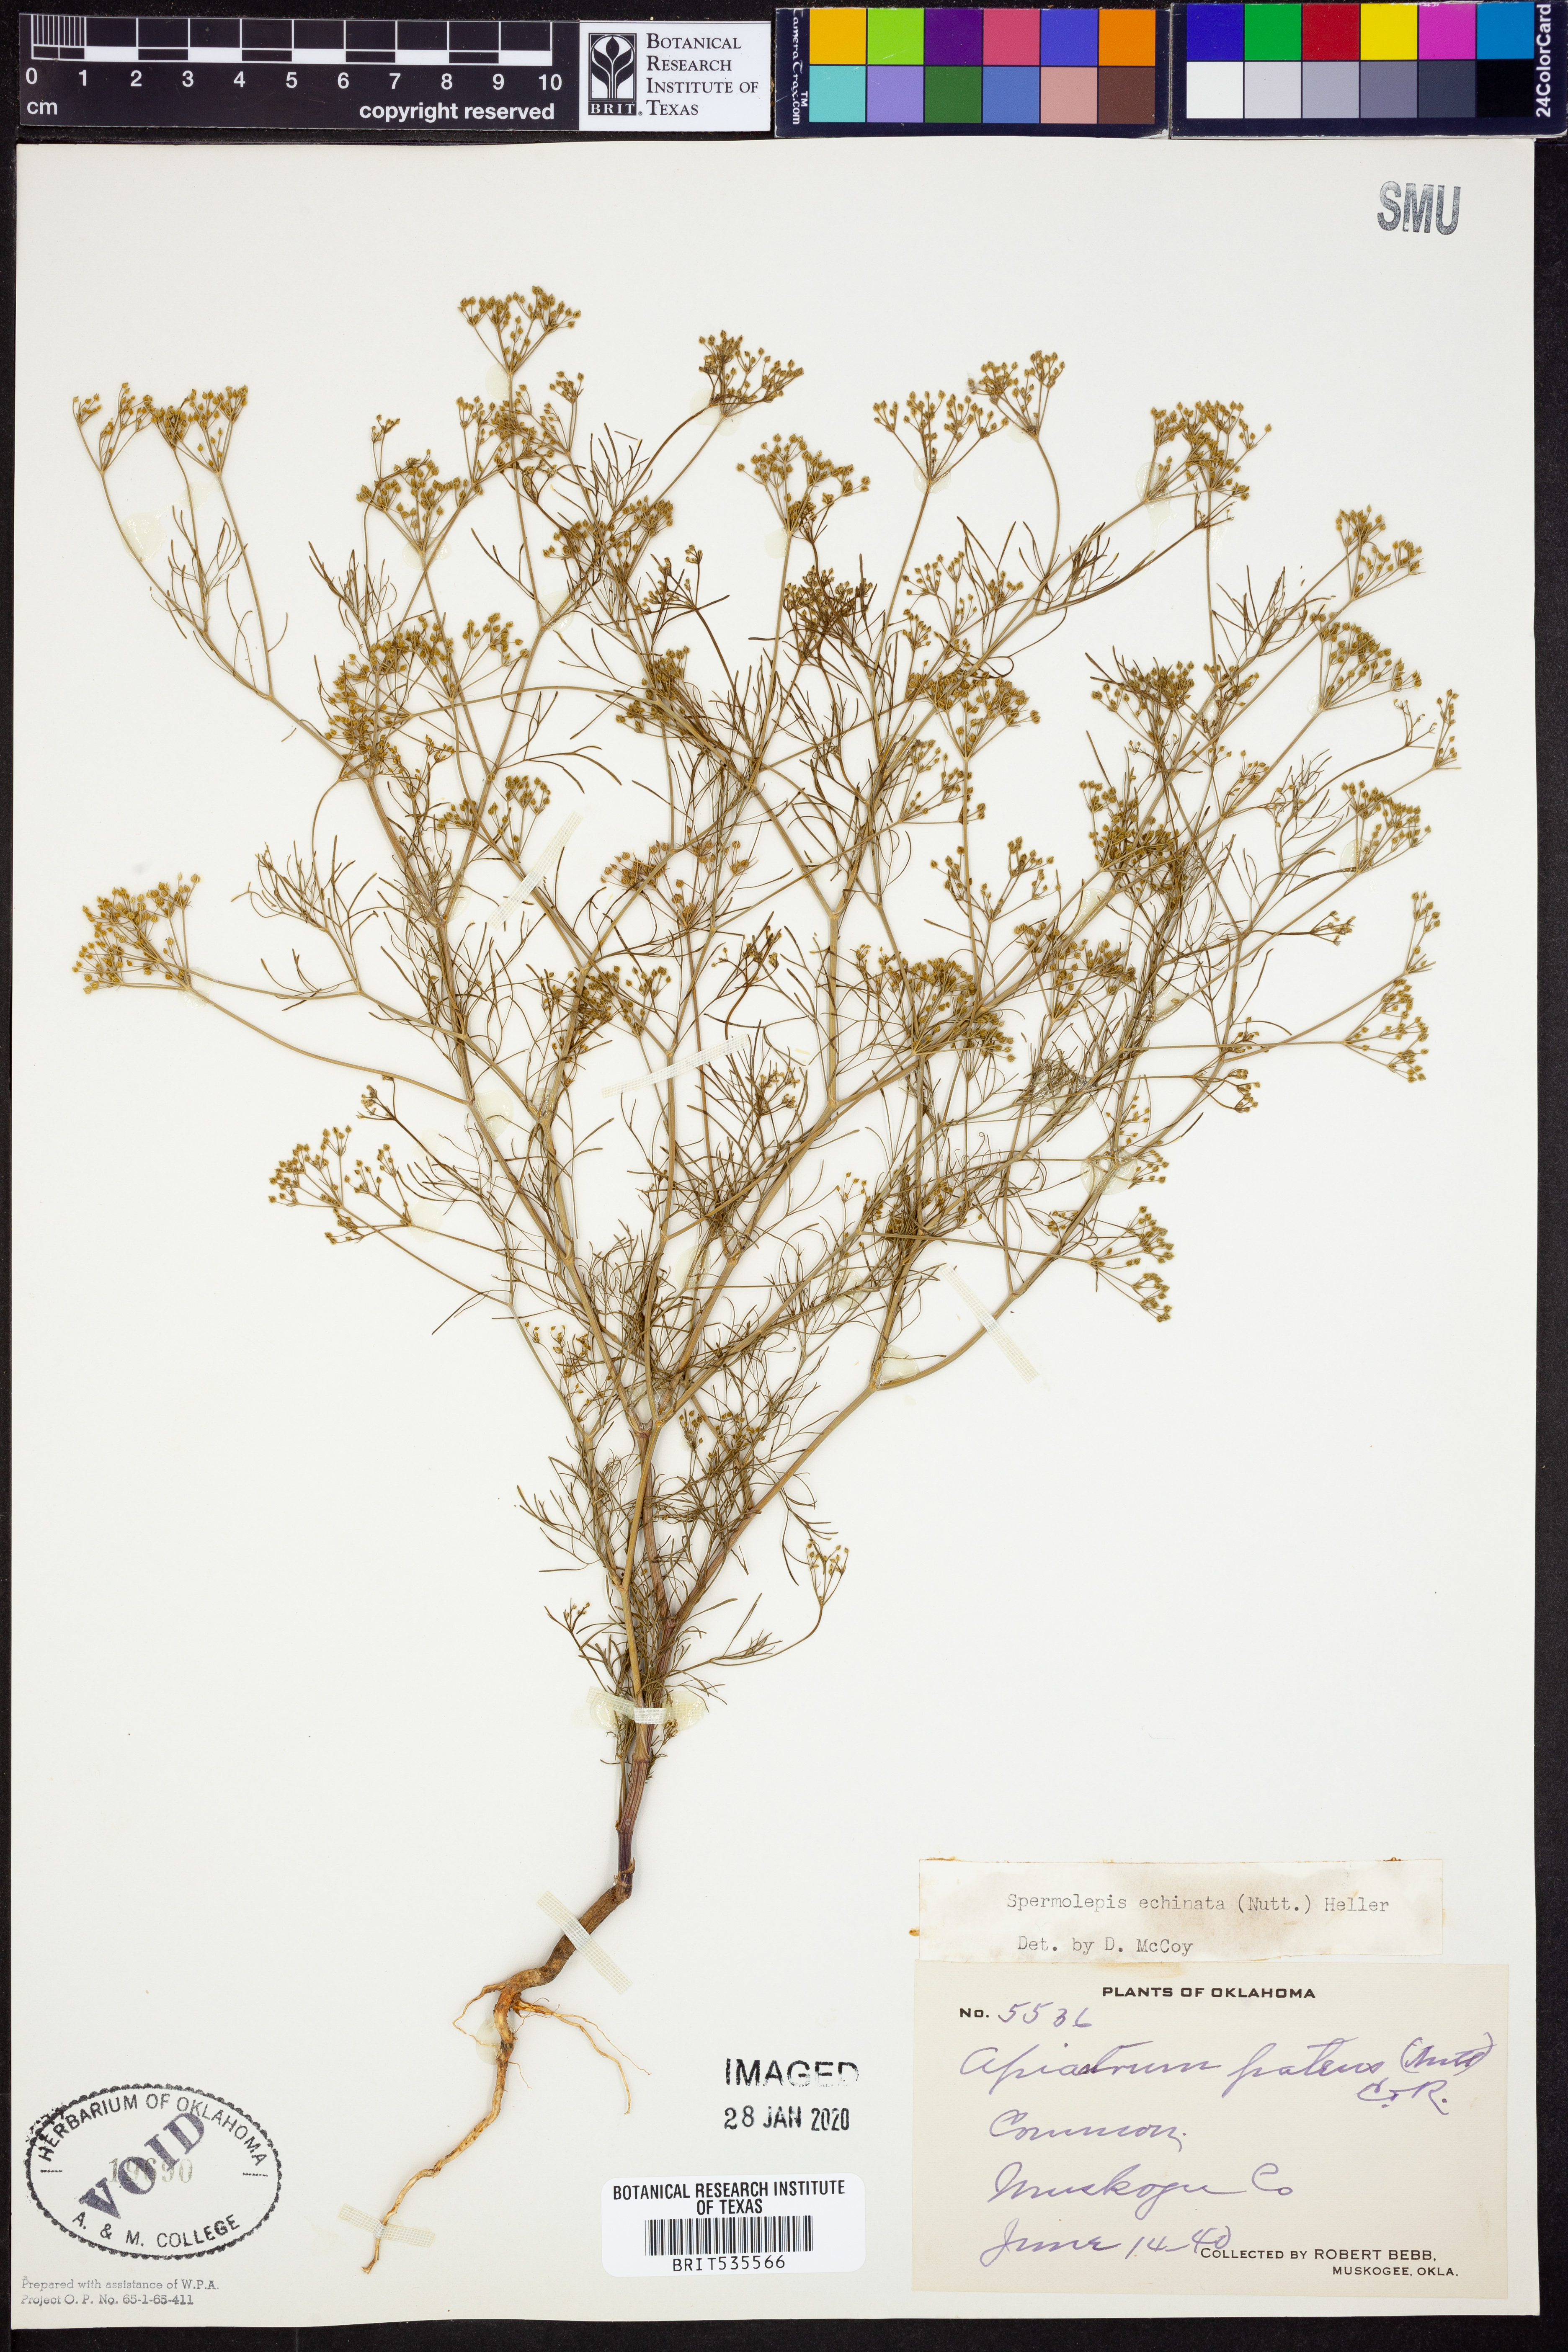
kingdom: Plantae
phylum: Tracheophyta
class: Magnoliopsida
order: Apiales
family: Apiaceae
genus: Spermolepis
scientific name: Spermolepis echinata
